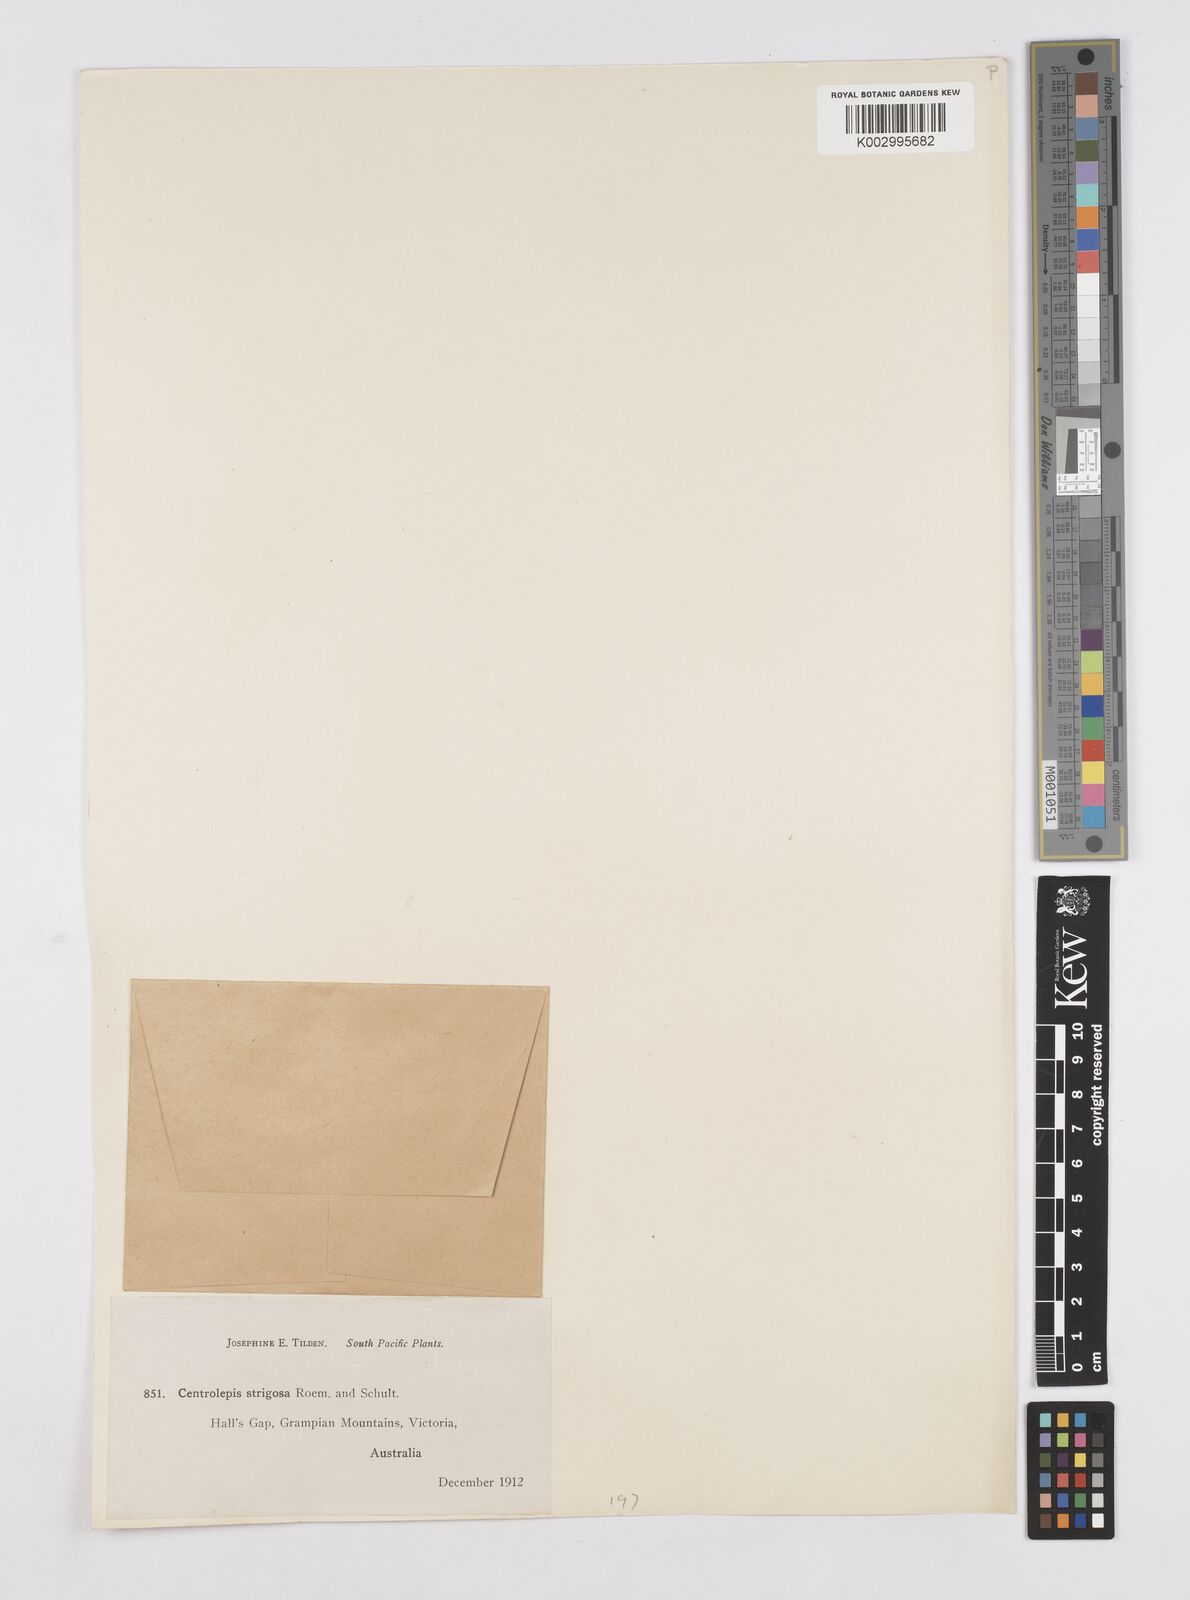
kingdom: Plantae
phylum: Tracheophyta
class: Liliopsida
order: Poales
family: Restionaceae
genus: Centrolepis
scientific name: Centrolepis strigosa
